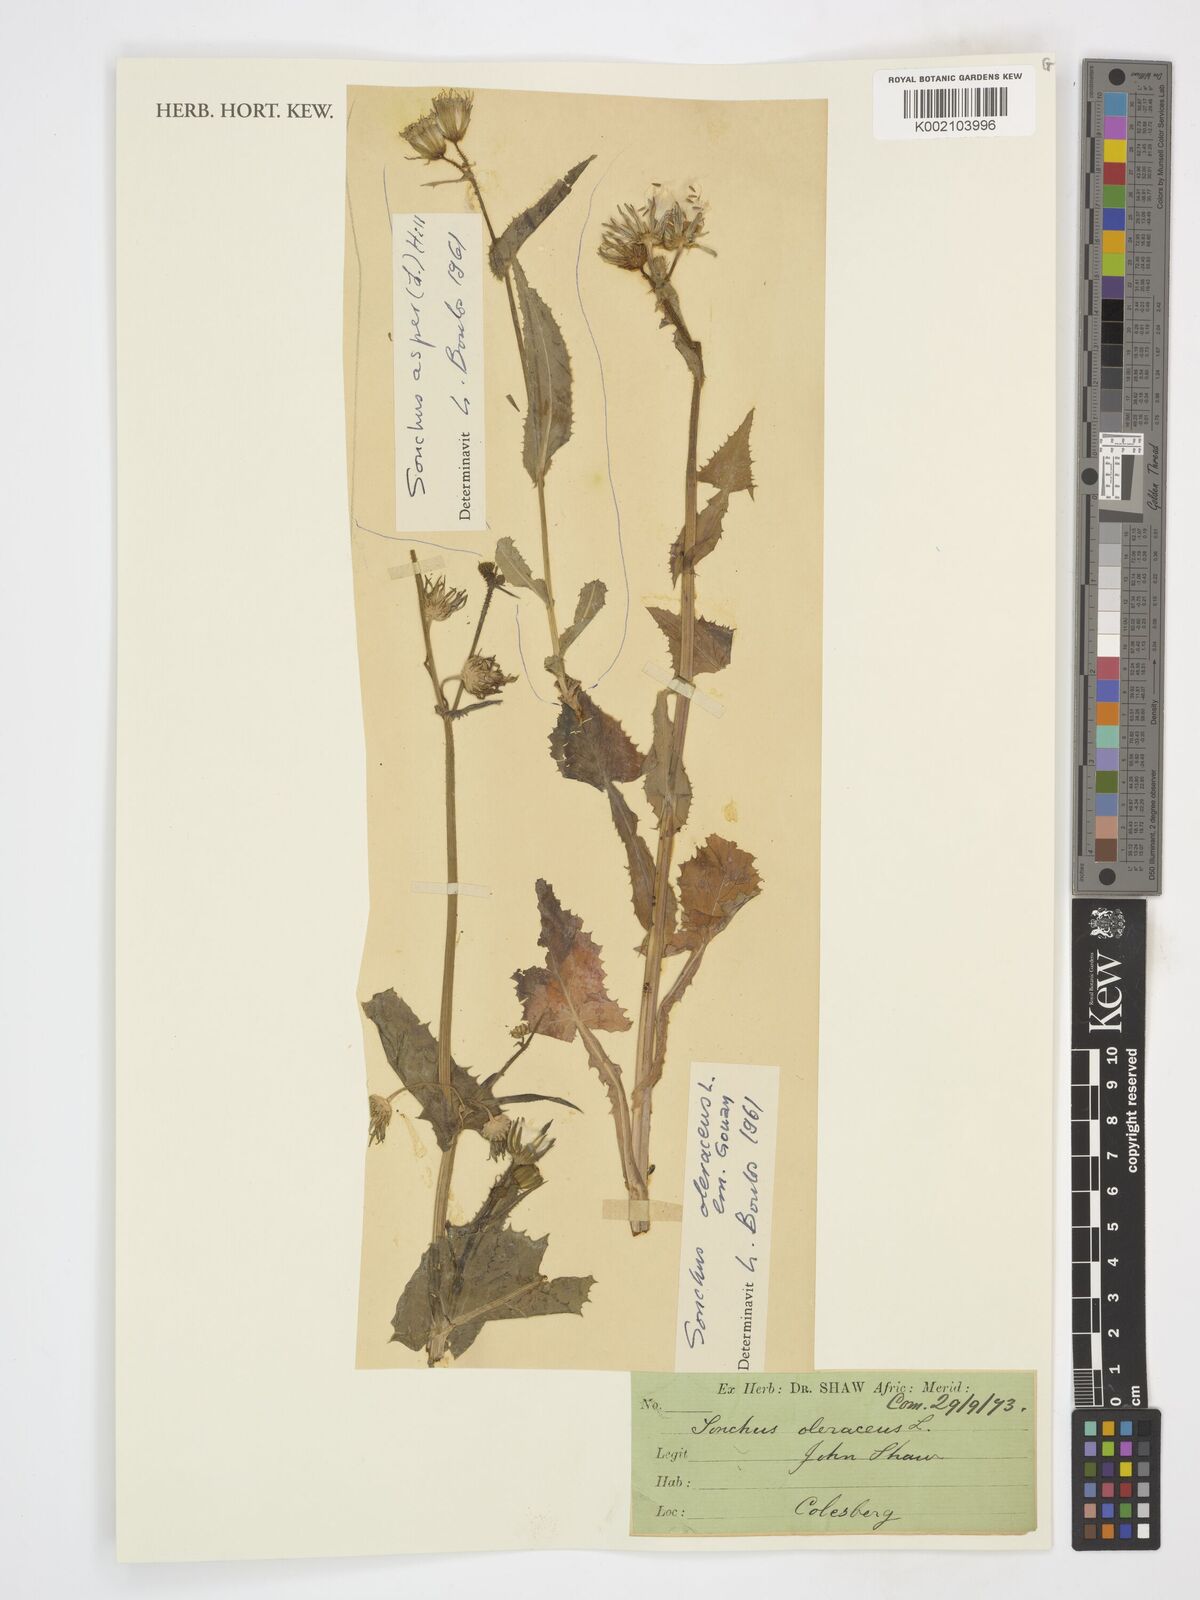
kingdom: Plantae
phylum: Tracheophyta
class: Magnoliopsida
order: Asterales
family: Asteraceae
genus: Sonchus
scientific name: Sonchus oleraceus
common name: Common sowthistle
